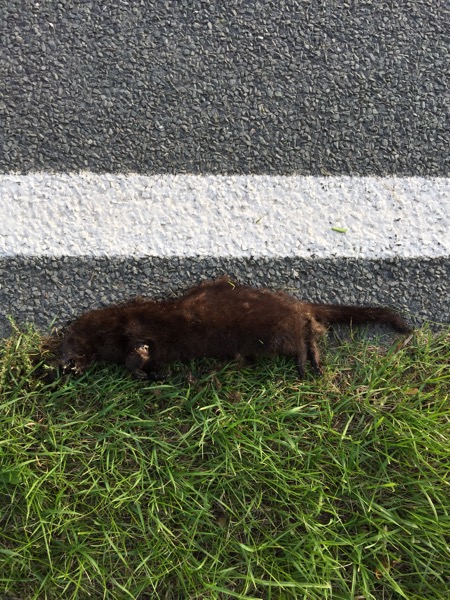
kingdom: Animalia
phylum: Chordata
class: Mammalia
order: Carnivora
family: Mustelidae
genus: Mustela
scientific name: Mustela vison
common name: American mink
